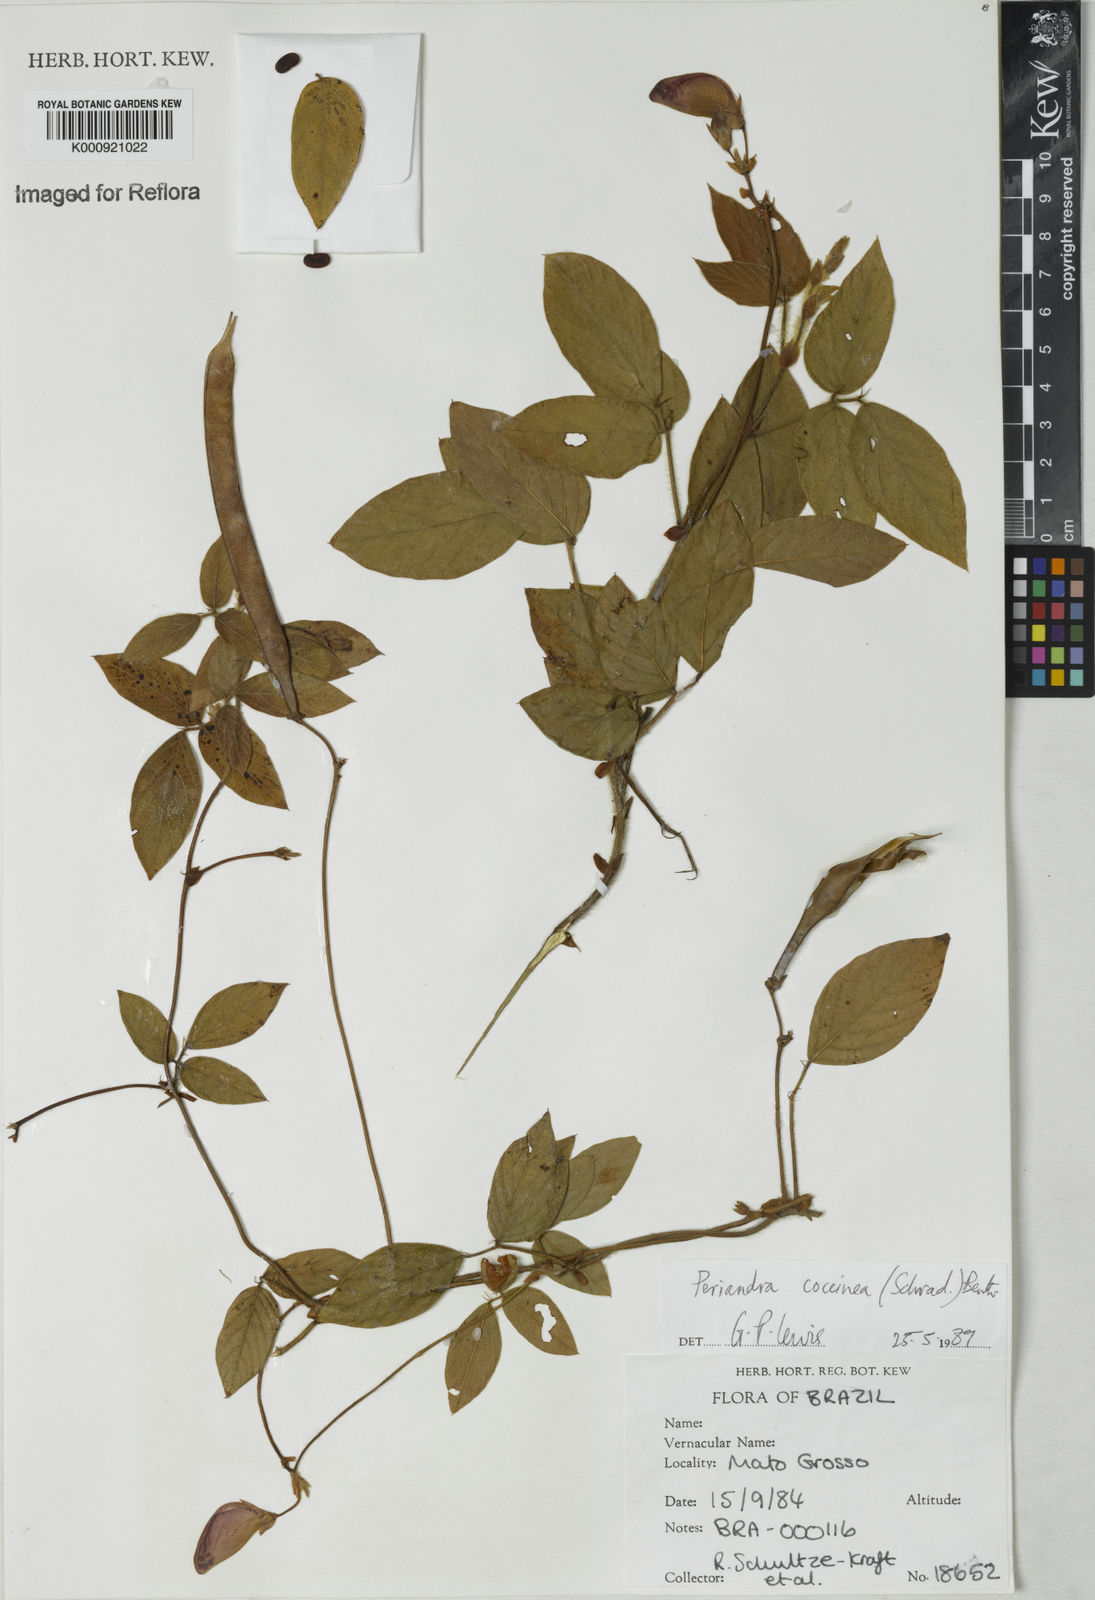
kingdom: Plantae
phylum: Tracheophyta
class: Magnoliopsida
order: Fabales
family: Fabaceae
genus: Periandra
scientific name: Periandra coccinea
